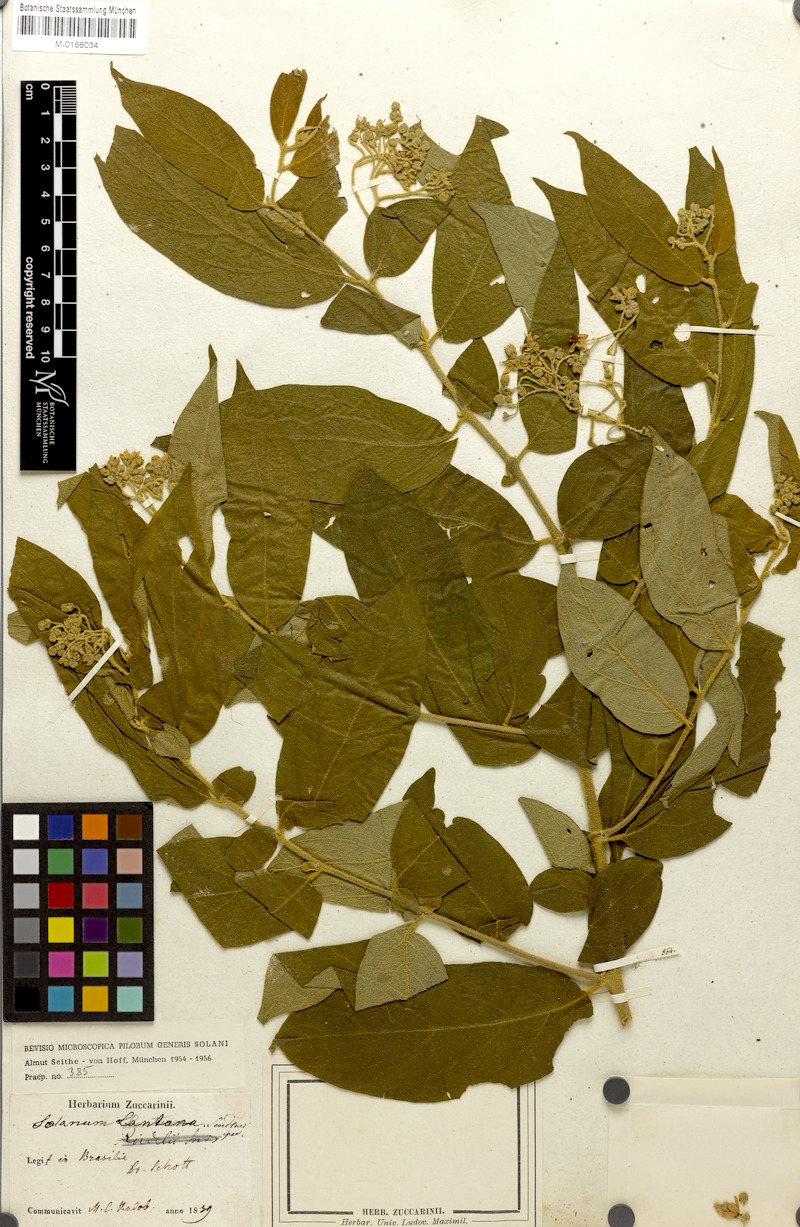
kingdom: Plantae
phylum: Tracheophyta
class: Magnoliopsida
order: Solanales
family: Solanaceae
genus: Solanum
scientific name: Solanum lantana
